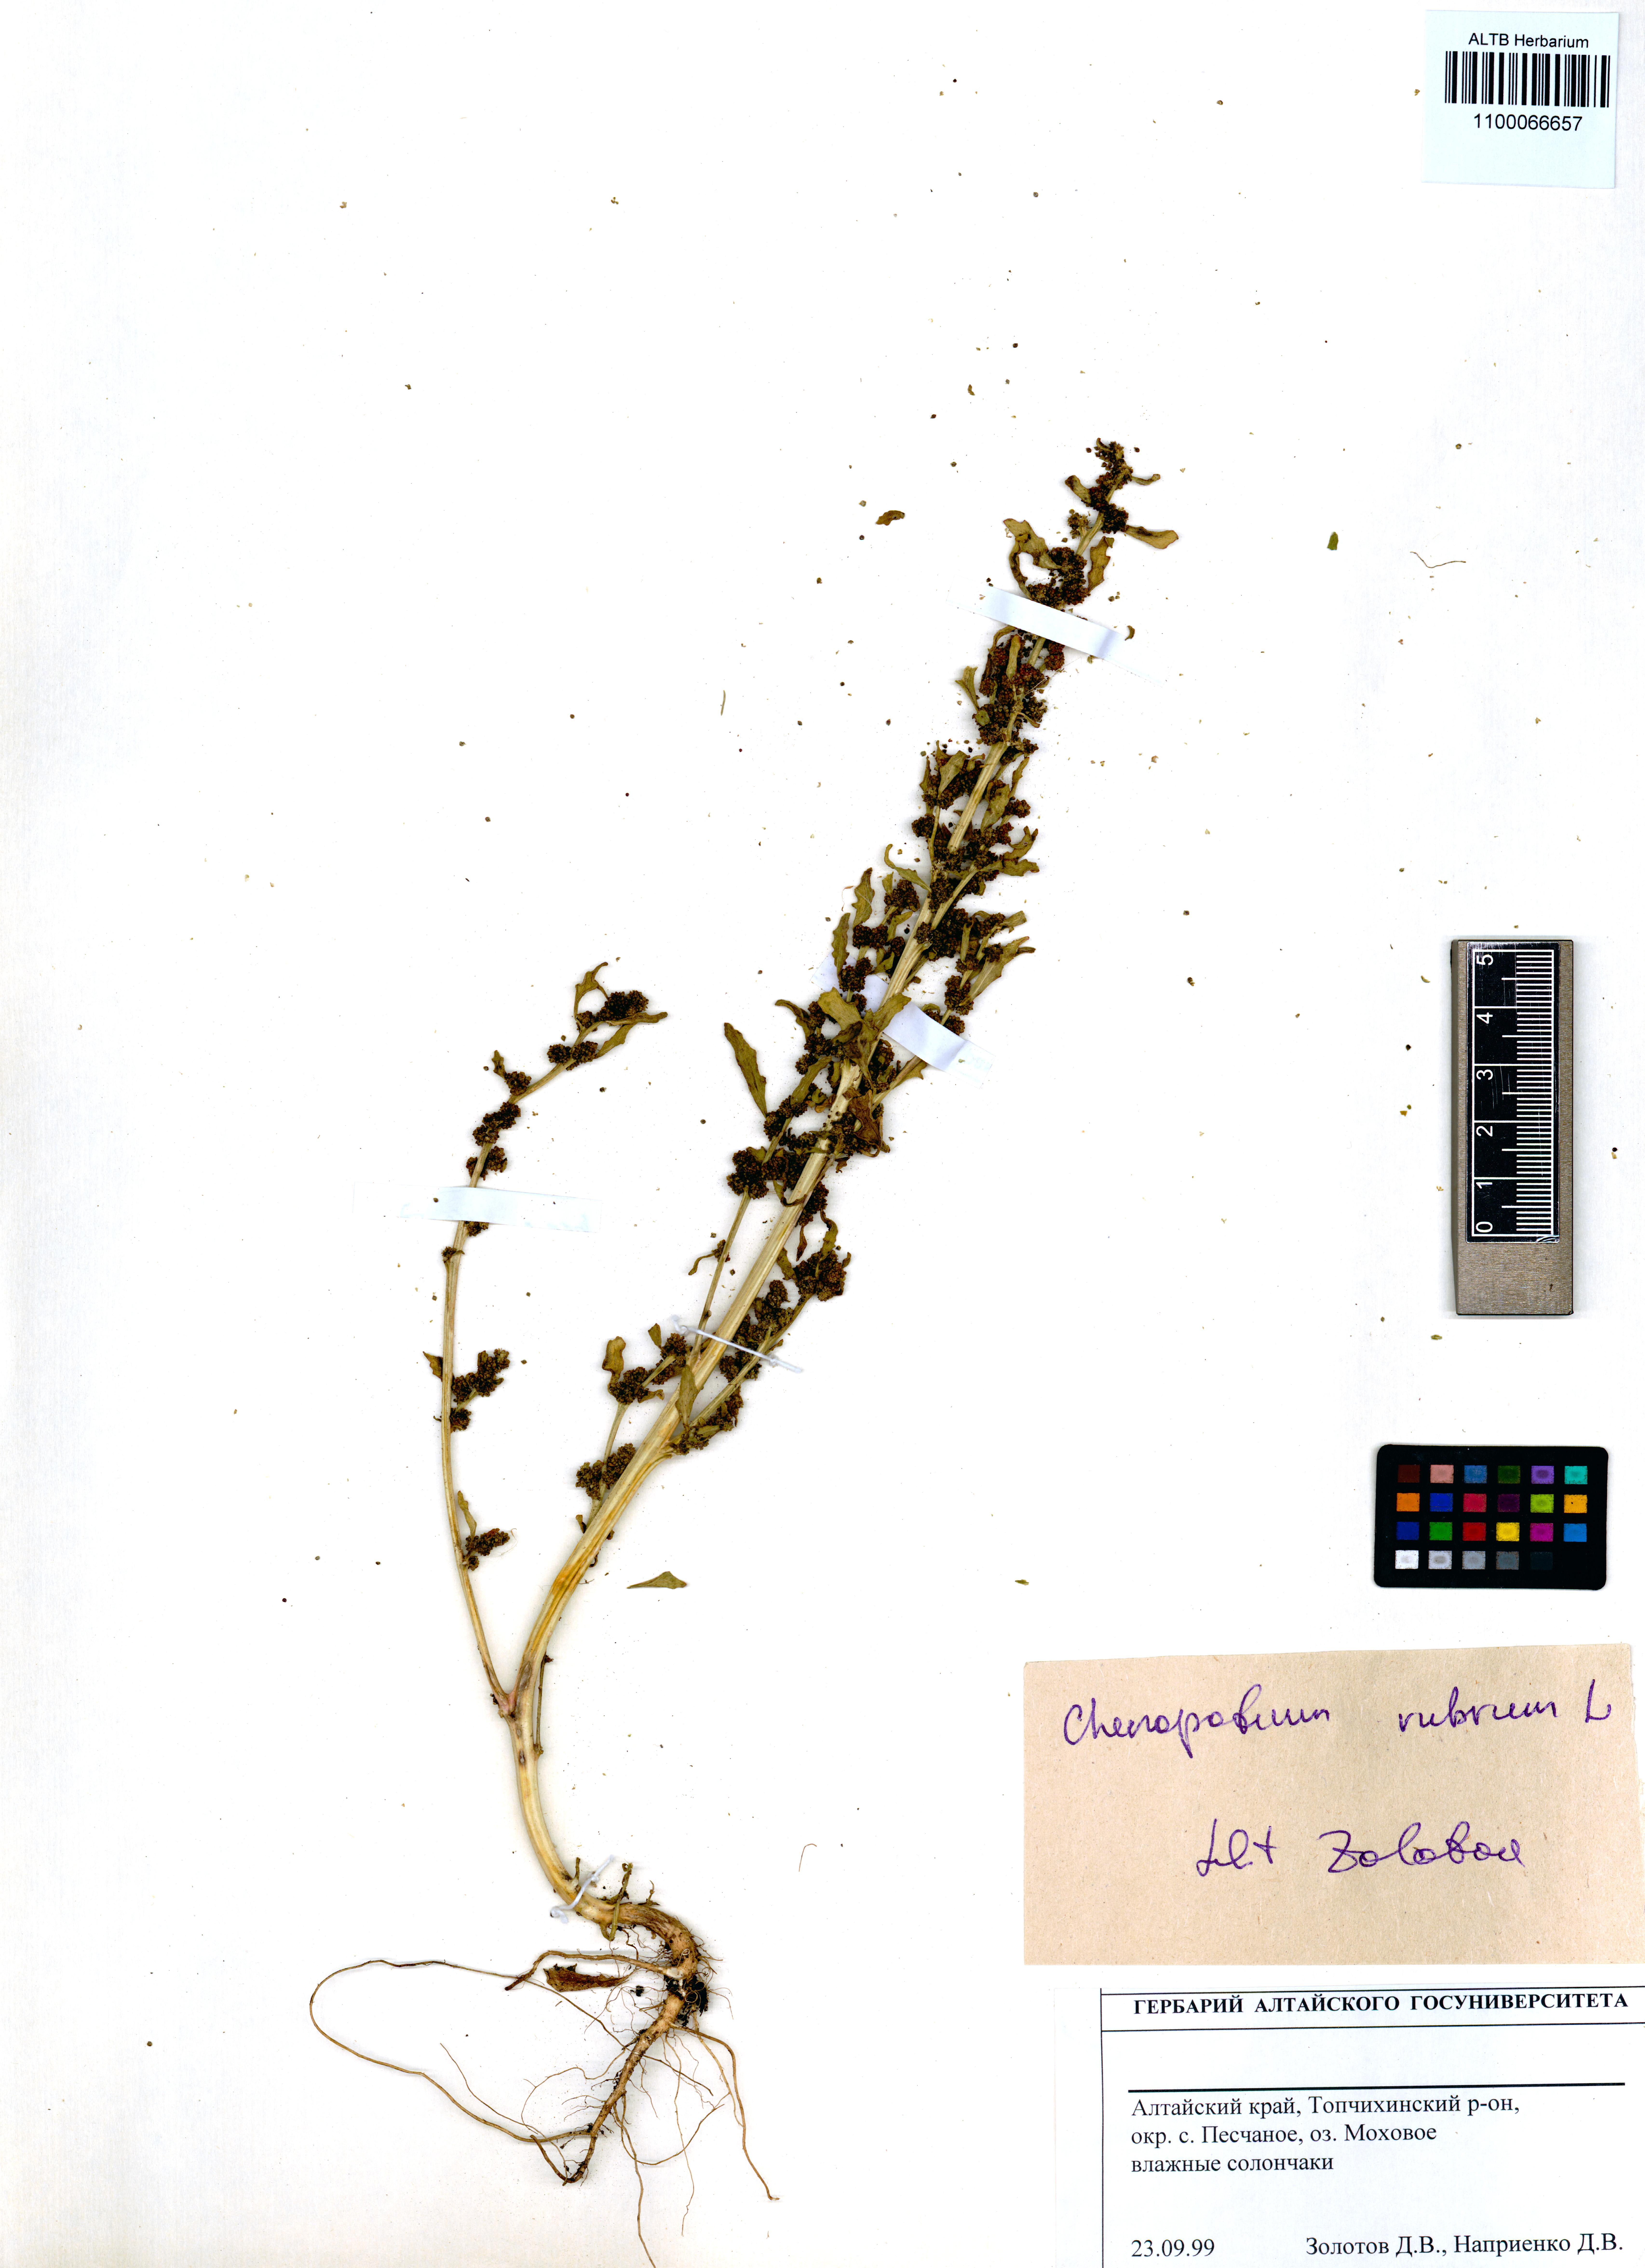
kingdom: Plantae
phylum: Tracheophyta
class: Magnoliopsida
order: Caryophyllales
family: Amaranthaceae
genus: Oxybasis
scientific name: Oxybasis rubra
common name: Red goosefoot
